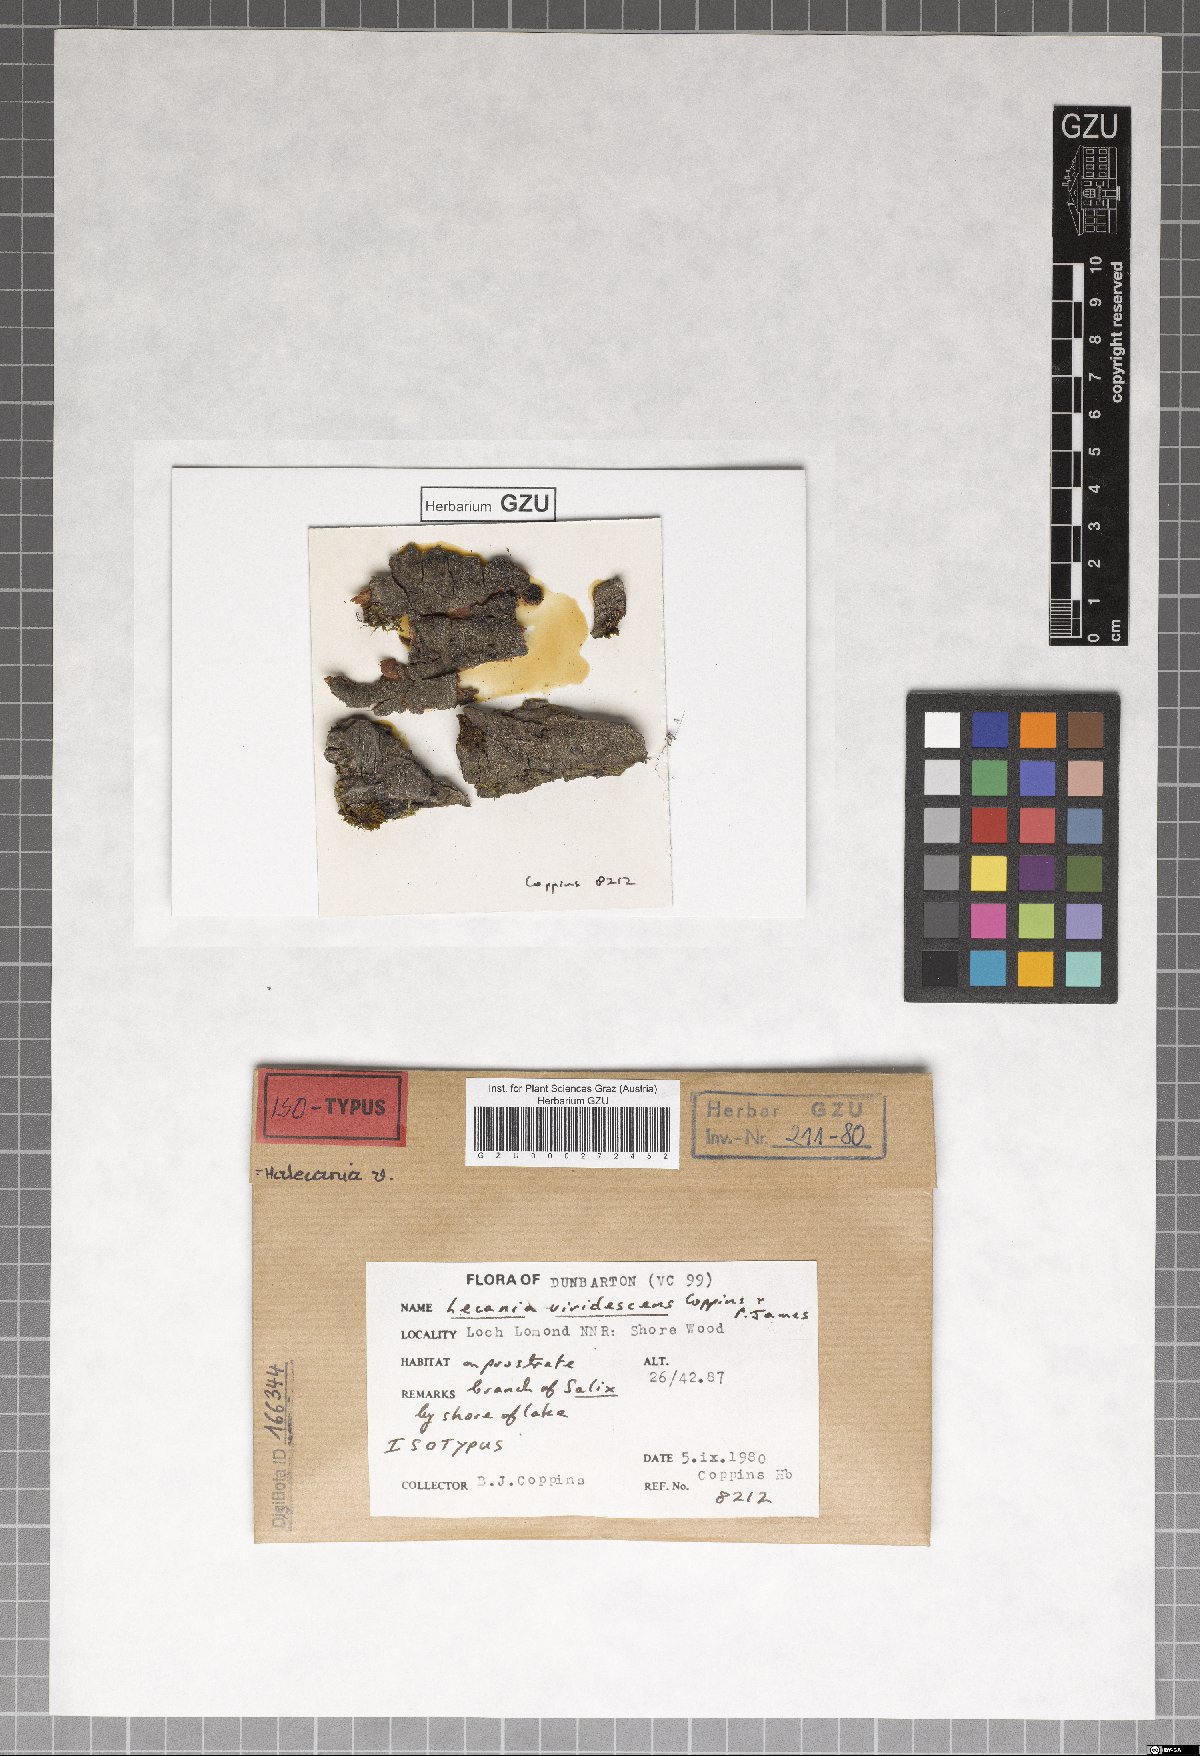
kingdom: Fungi
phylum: Ascomycota
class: Lecanoromycetes
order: Teloschistales
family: Leprocaulaceae
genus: Halecania
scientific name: Halecania viridescens
